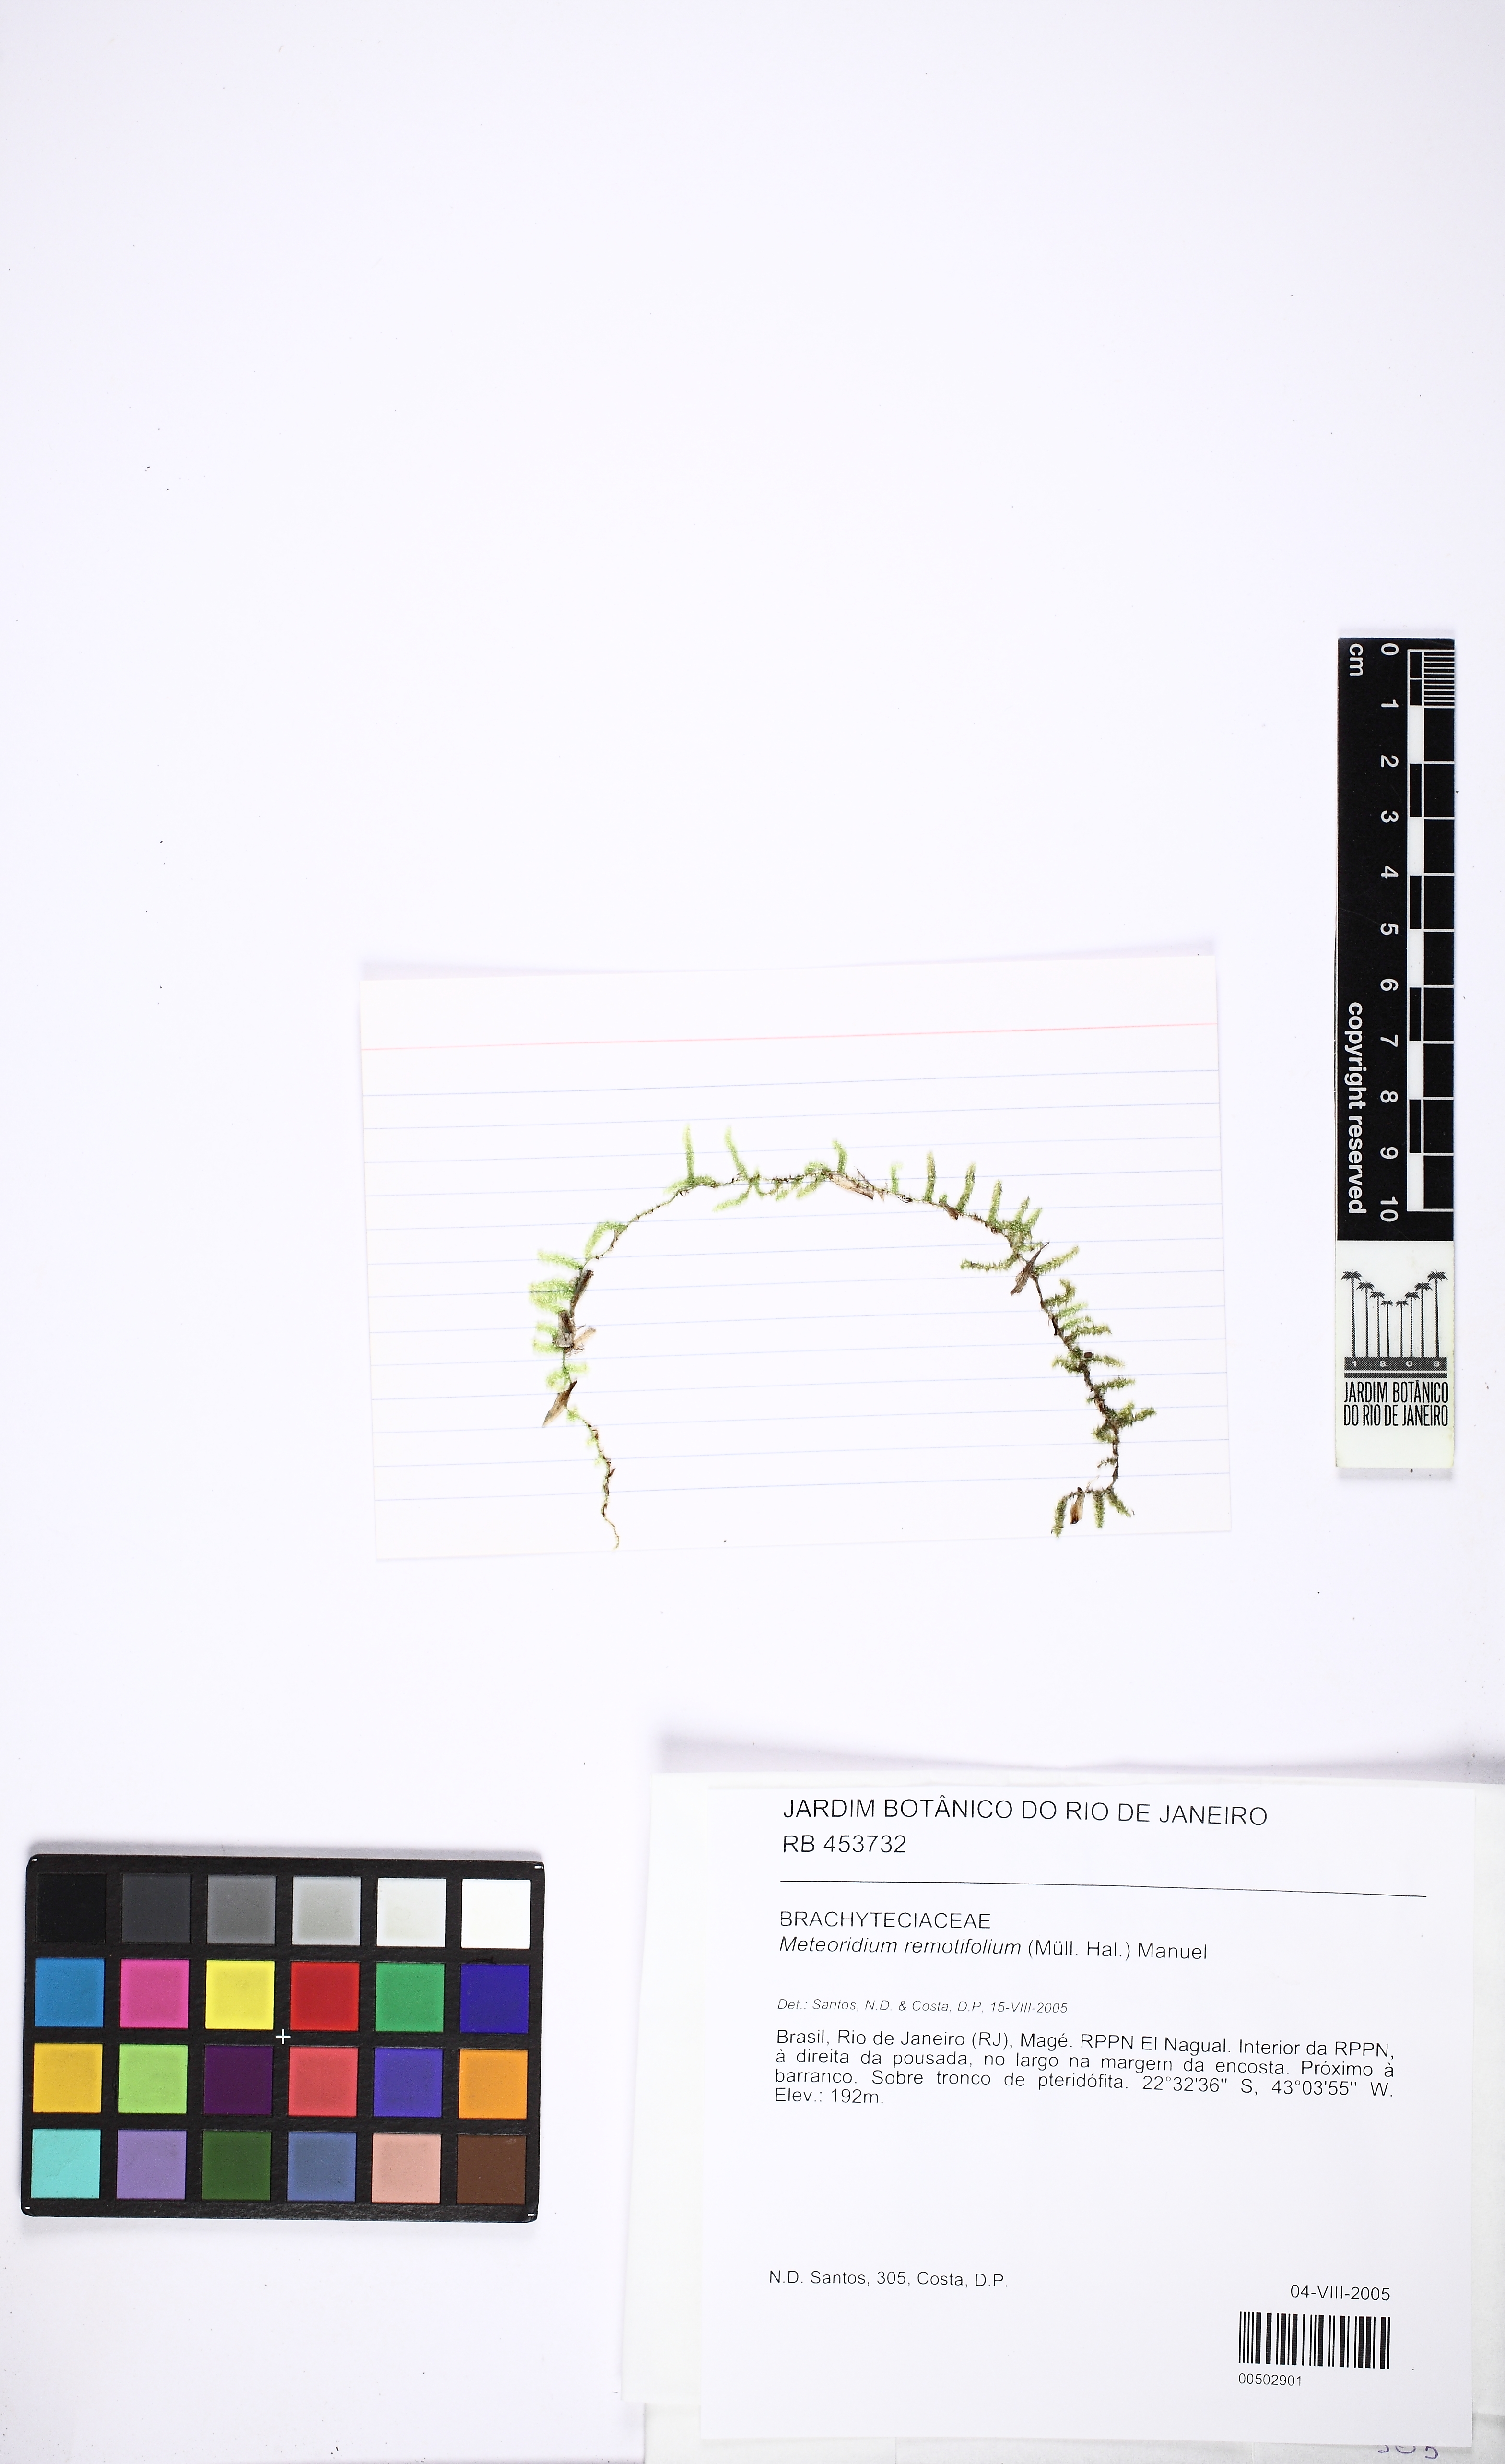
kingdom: Plantae
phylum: Bryophyta
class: Bryopsida
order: Hypnales
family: Brachytheciaceae
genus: Meteoridium
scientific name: Meteoridium remotifolium
